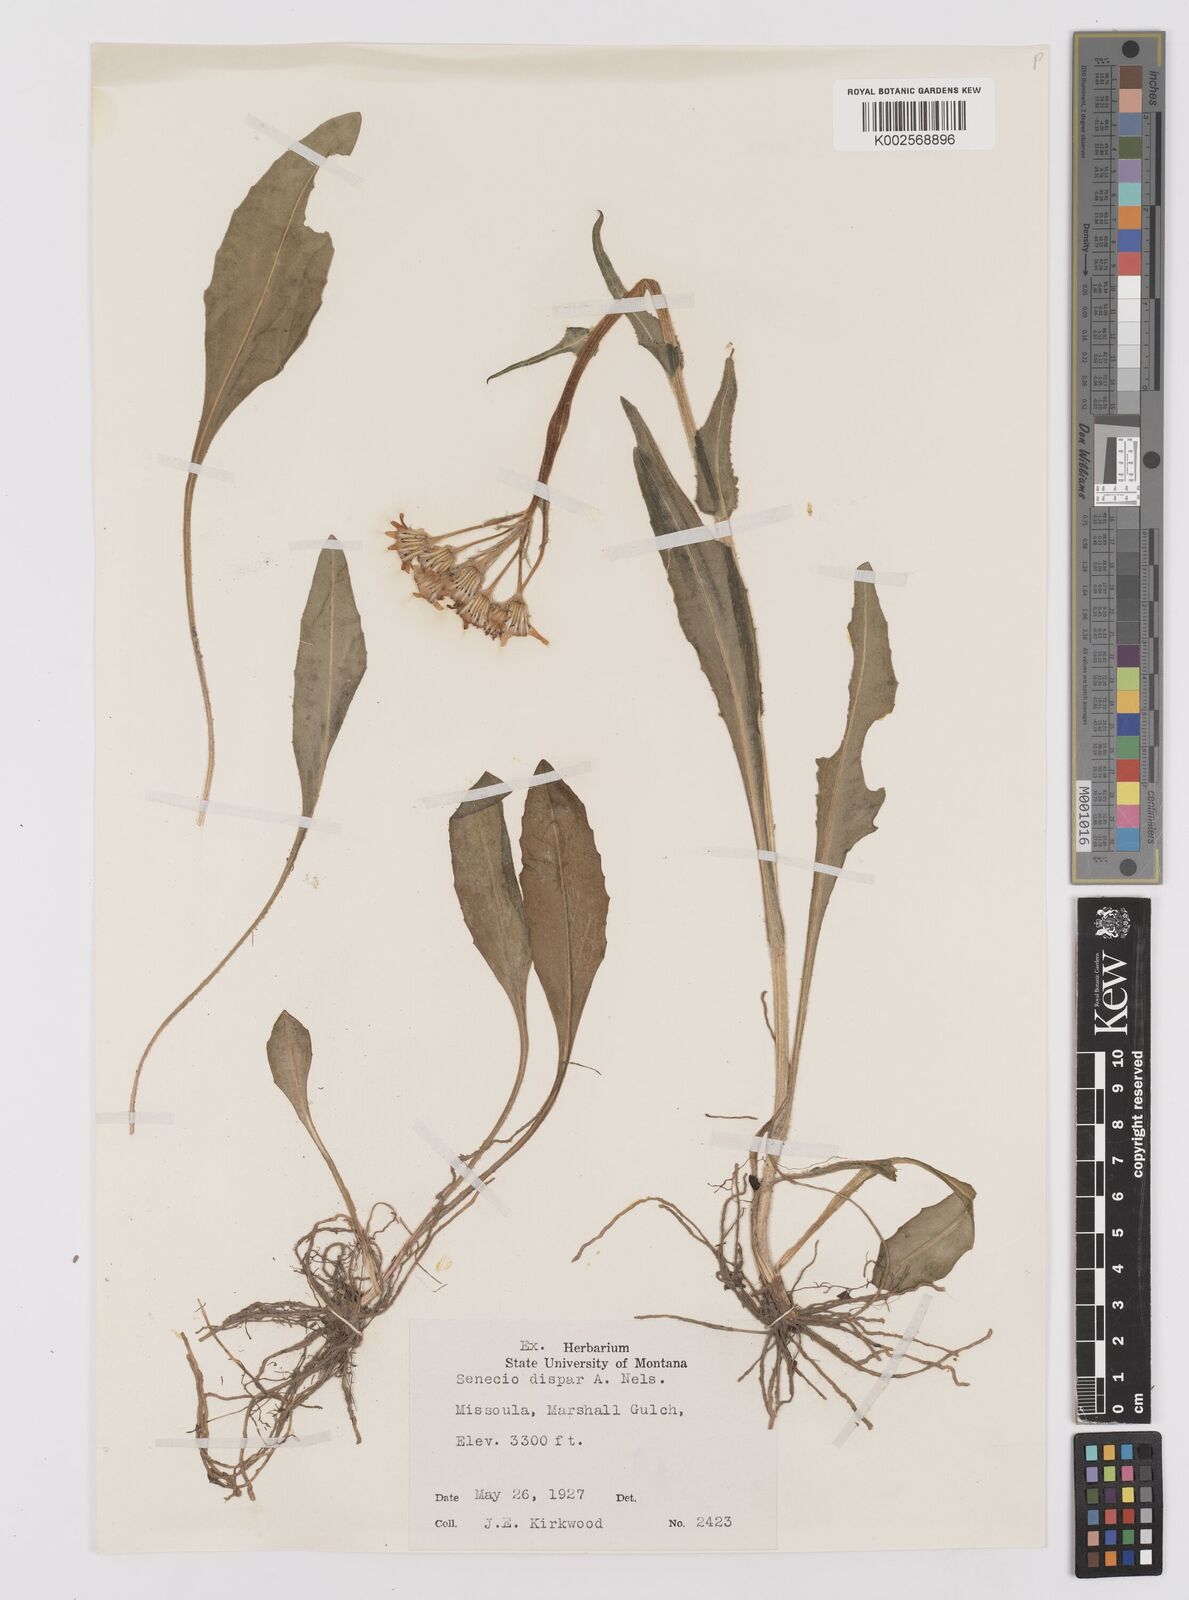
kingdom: Plantae
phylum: Tracheophyta
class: Magnoliopsida
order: Asterales
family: Asteraceae
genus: Senecio
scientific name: Senecio integerrimus
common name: Gaugeplant
